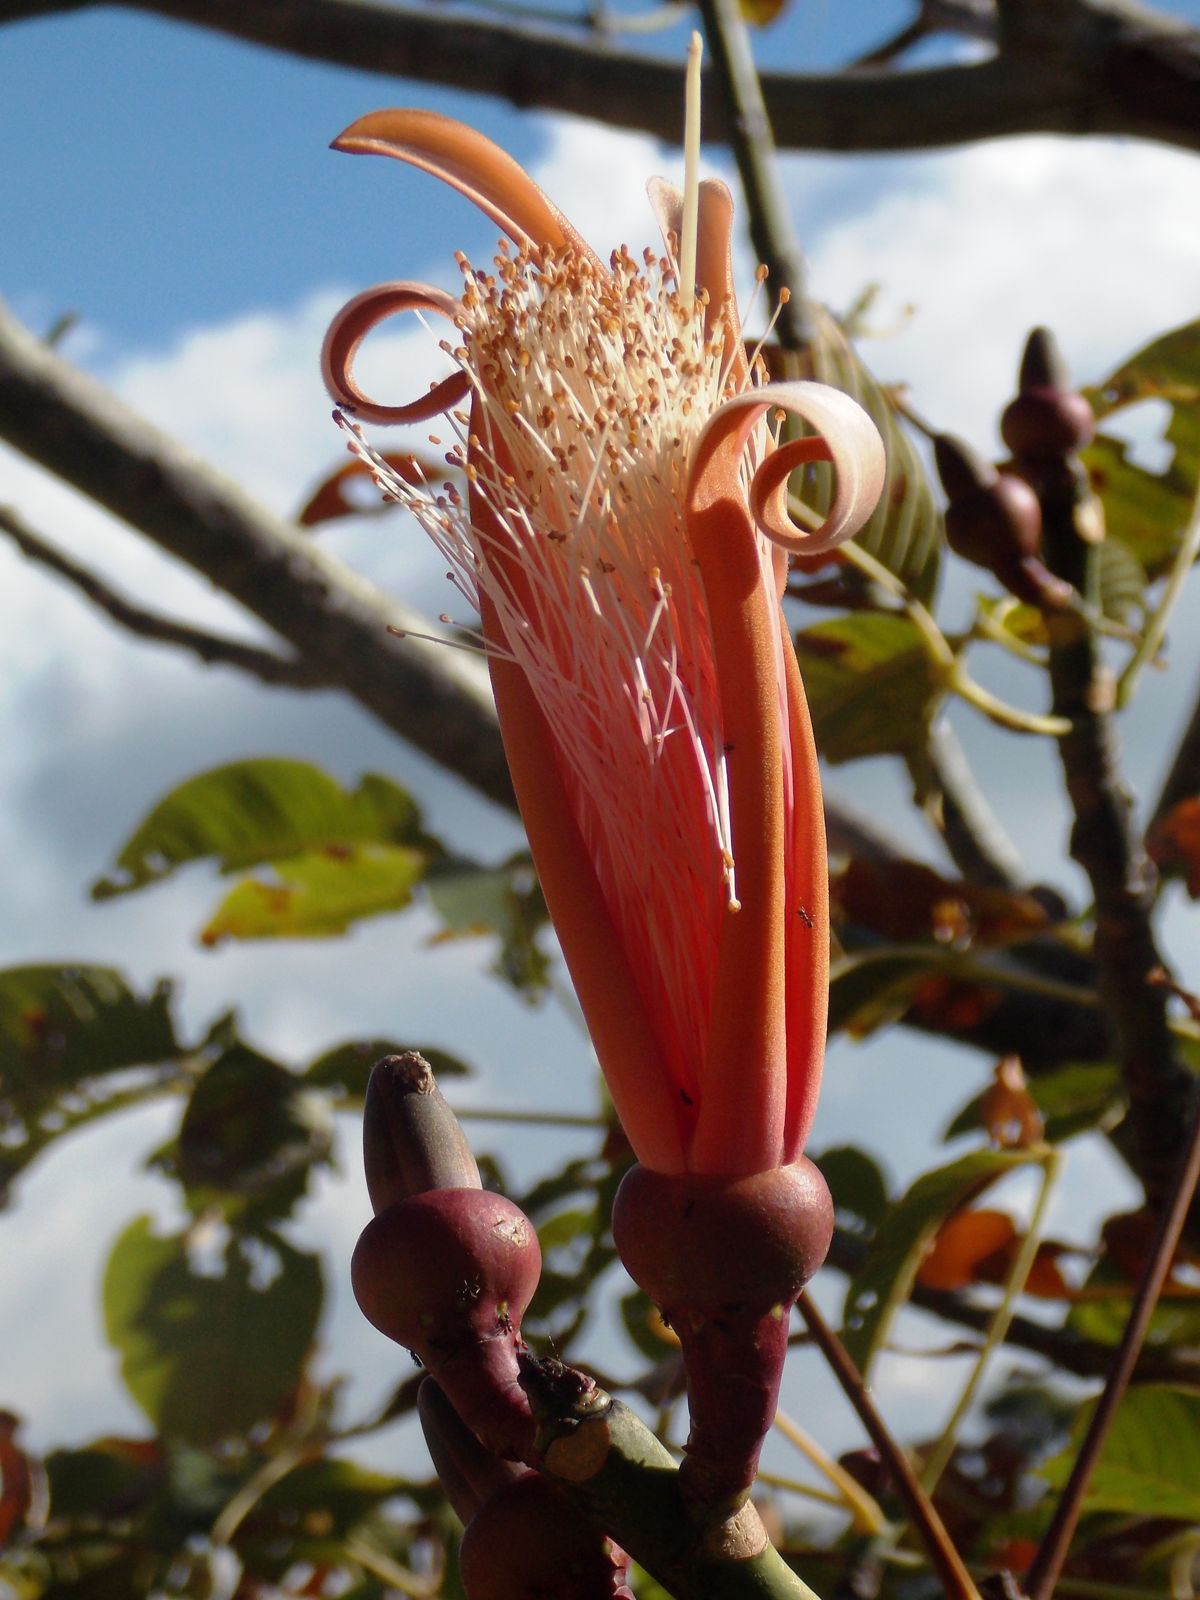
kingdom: Plantae
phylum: Tracheophyta
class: Magnoliopsida
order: Malvales
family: Malvaceae
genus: Pseudobombax
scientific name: Pseudobombax ellipticum
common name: Shaving-brush-tree
